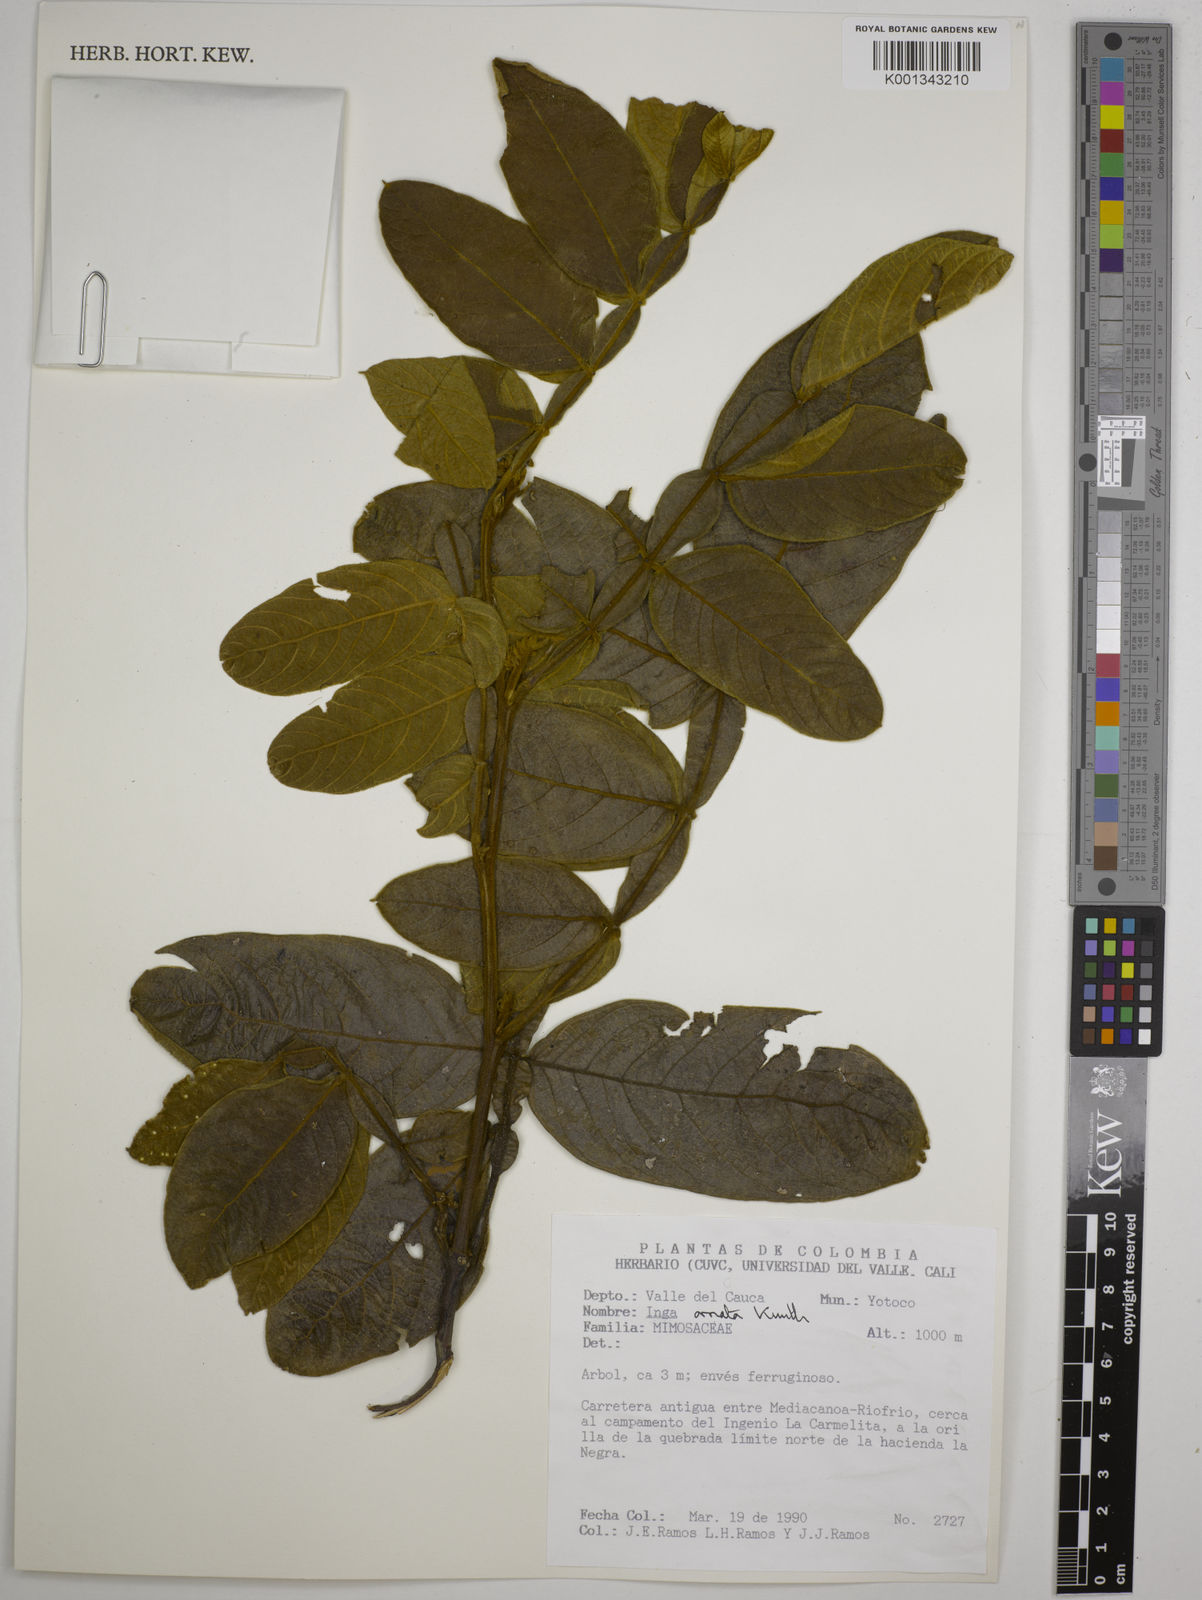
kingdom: Plantae
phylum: Tracheophyta
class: Magnoliopsida
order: Fabales
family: Fabaceae
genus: Inga
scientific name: Inga ornata
